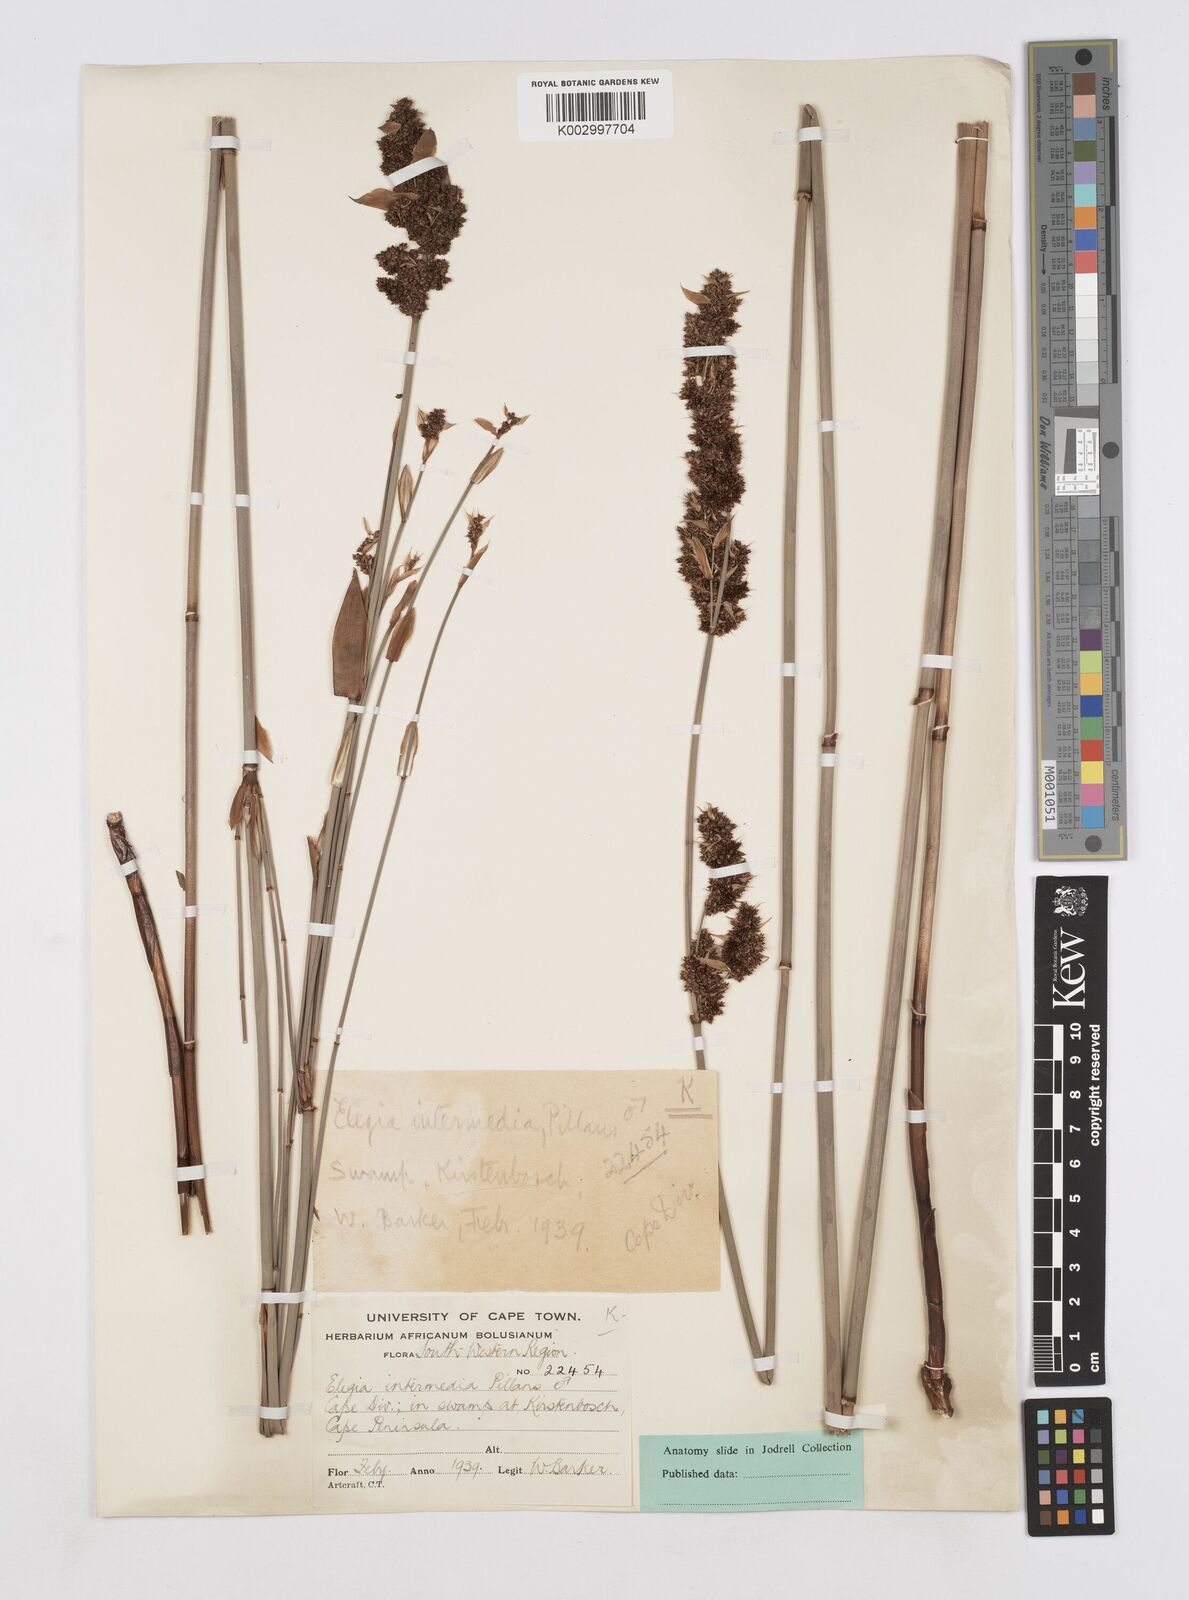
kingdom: Plantae
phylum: Tracheophyta
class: Liliopsida
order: Poales
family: Restionaceae
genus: Elegia
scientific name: Elegia intermedia
